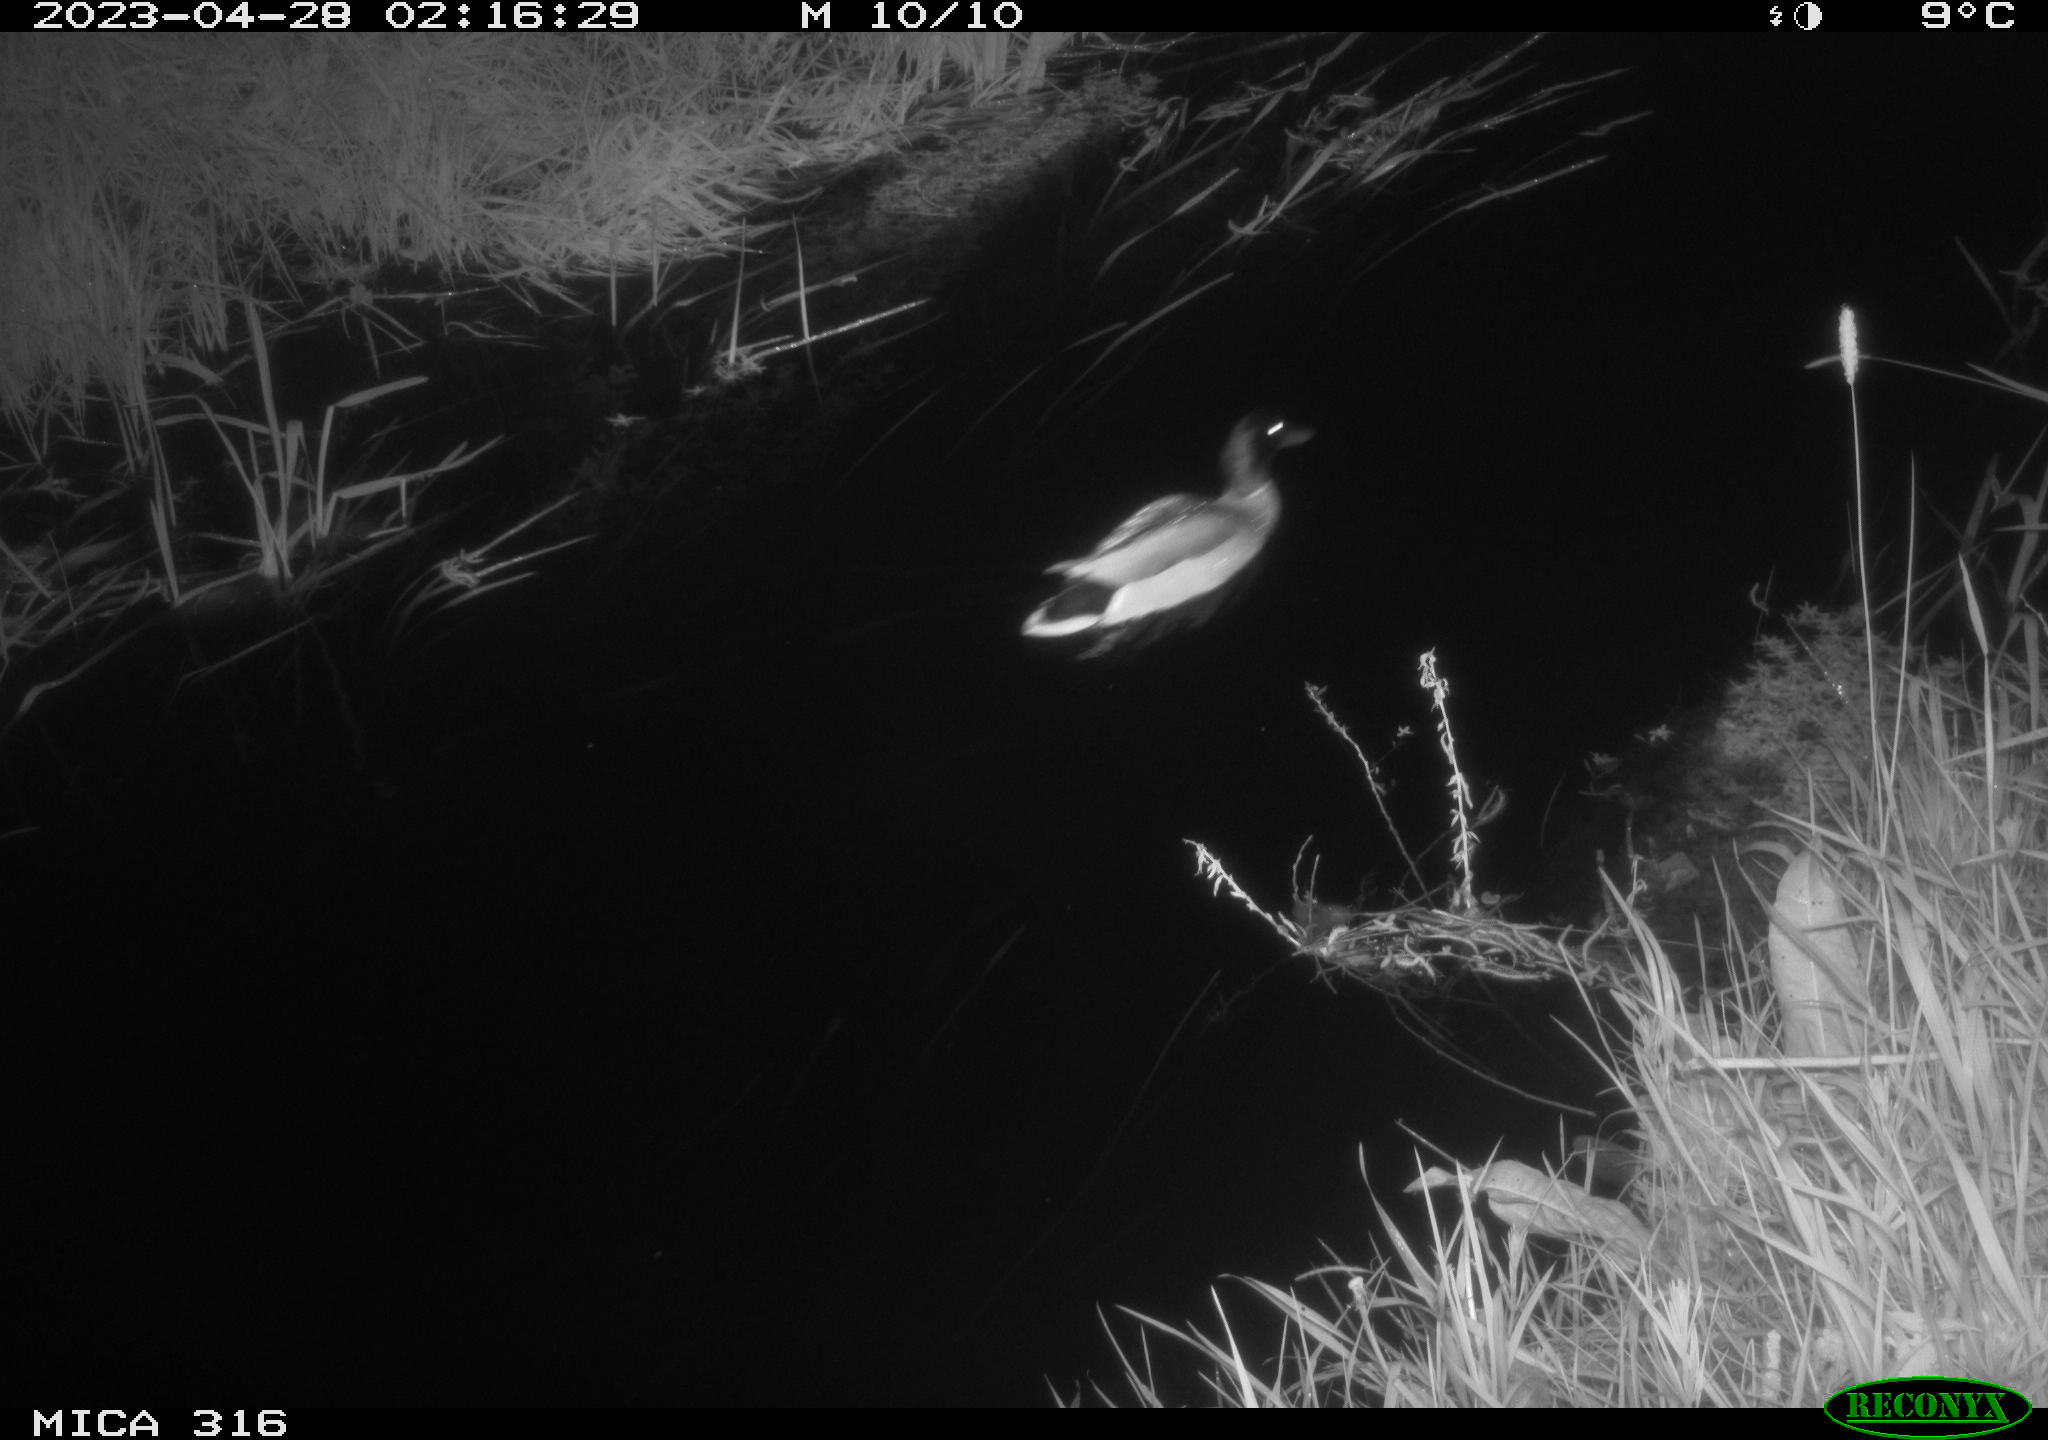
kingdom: Animalia
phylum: Chordata
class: Aves
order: Gruiformes
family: Rallidae
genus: Gallinula
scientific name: Gallinula chloropus
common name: Common moorhen
